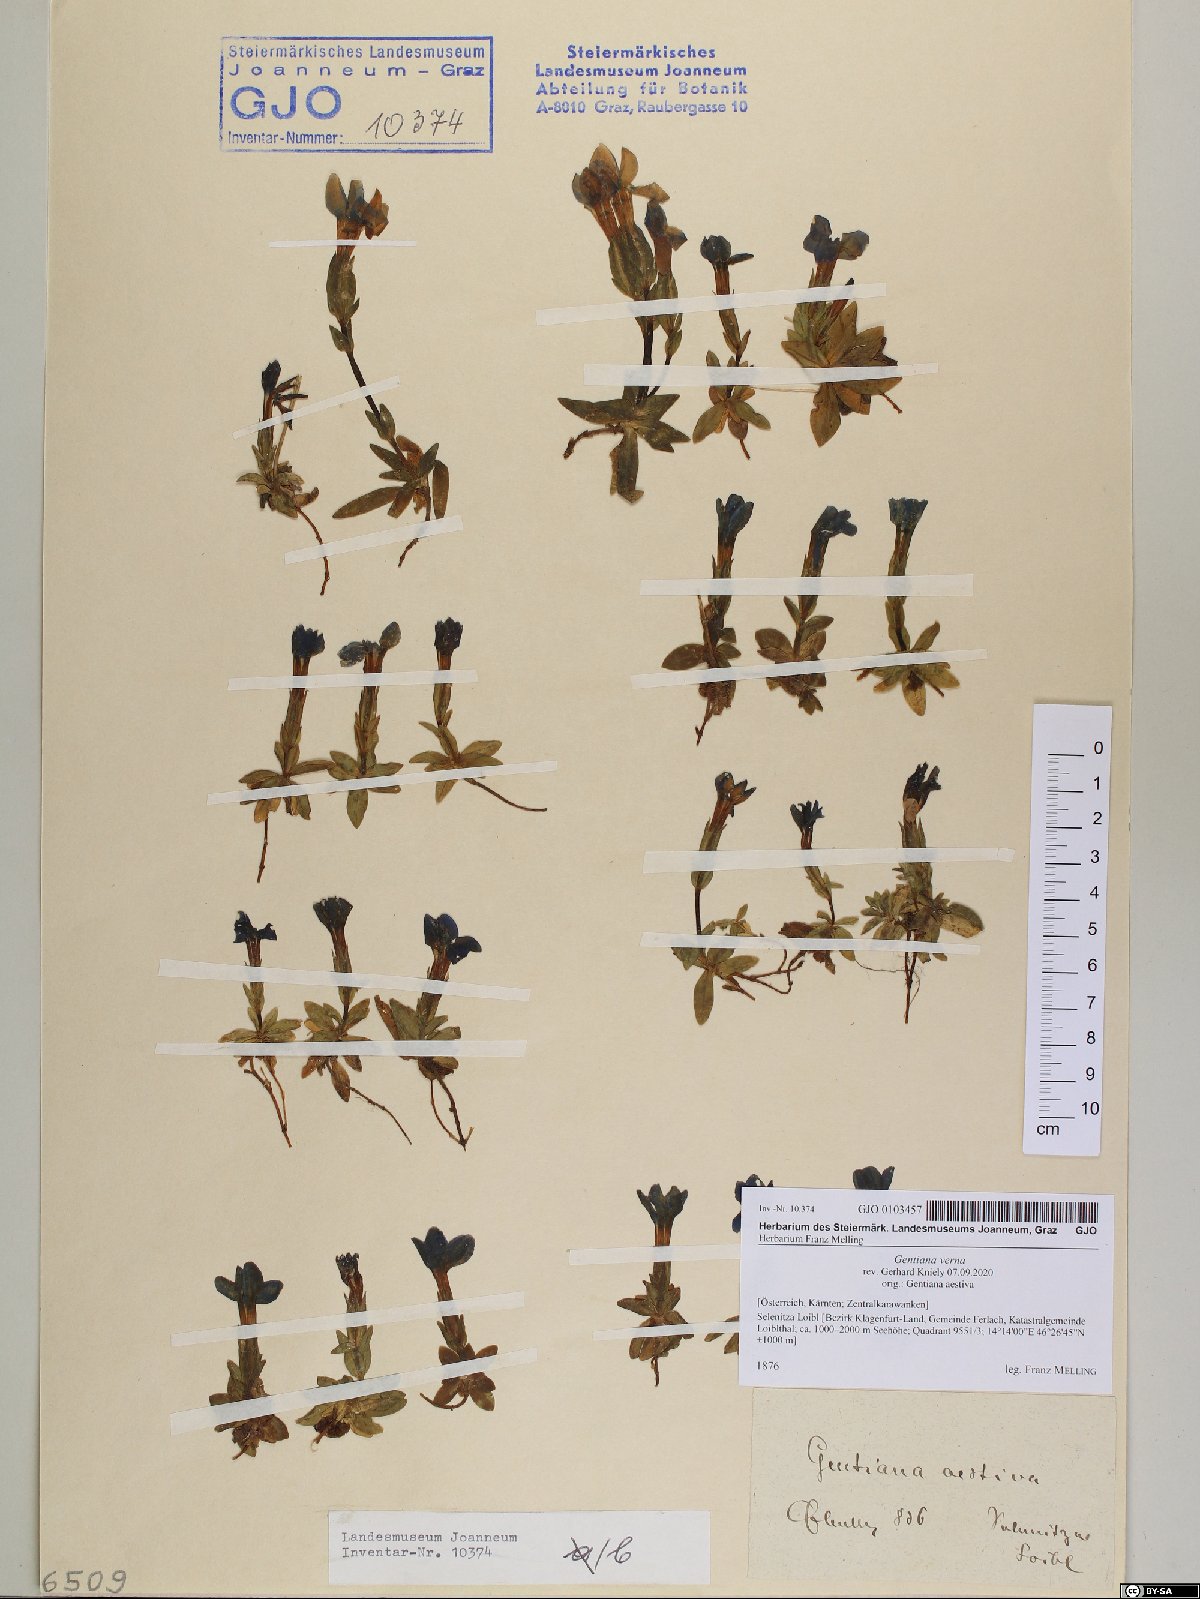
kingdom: Plantae
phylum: Tracheophyta
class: Magnoliopsida
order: Gentianales
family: Gentianaceae
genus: Gentiana
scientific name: Gentiana verna
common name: Spring gentian
